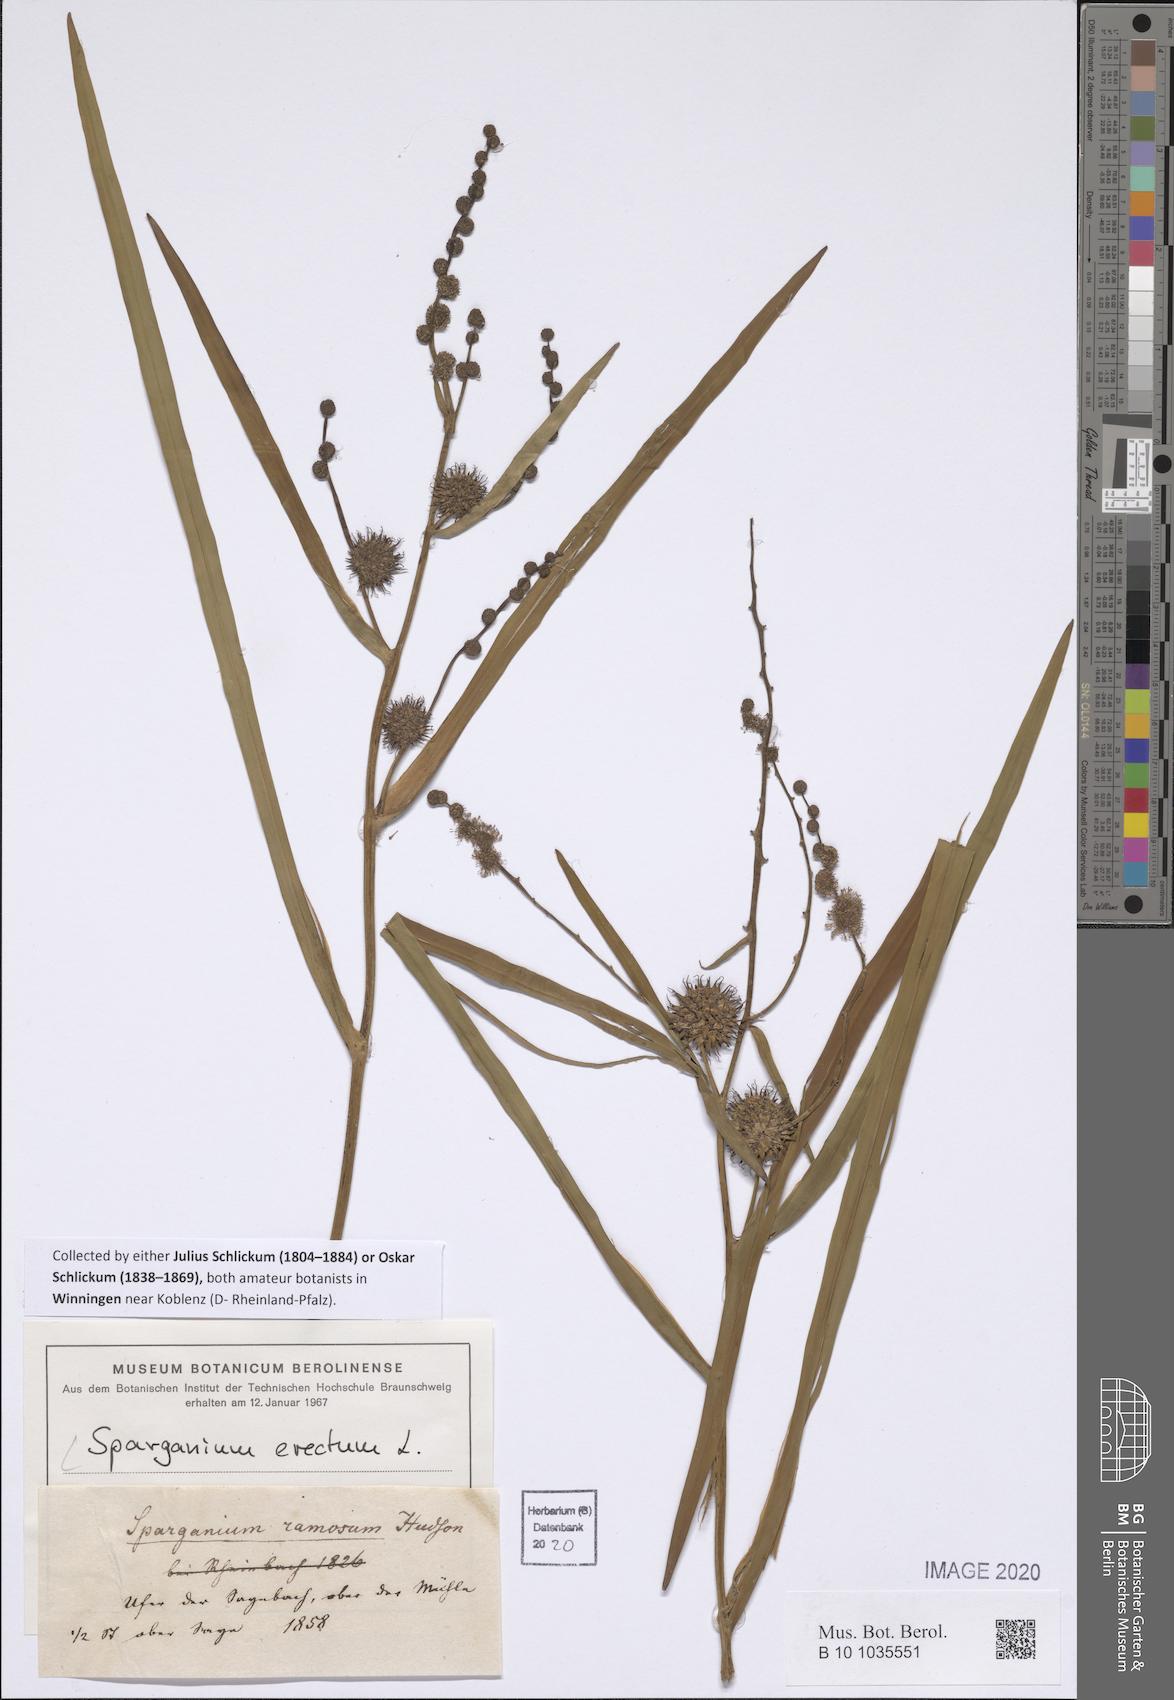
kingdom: Plantae
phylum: Tracheophyta
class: Liliopsida
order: Poales
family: Typhaceae
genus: Sparganium
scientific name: Sparganium erectum
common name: Branched bur-reed
